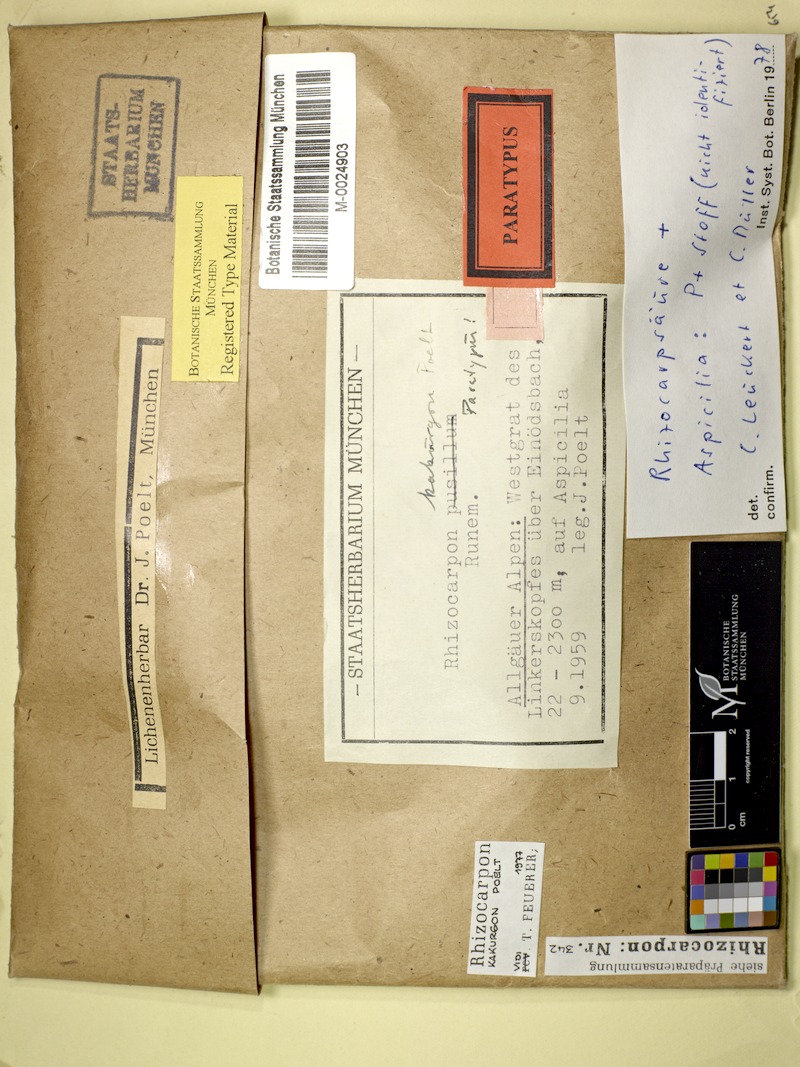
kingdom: Fungi
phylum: Ascomycota
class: Lecanoromycetes
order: Rhizocarpales
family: Rhizocarpaceae
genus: Rhizocarpon
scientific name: Rhizocarpon kakurgon
